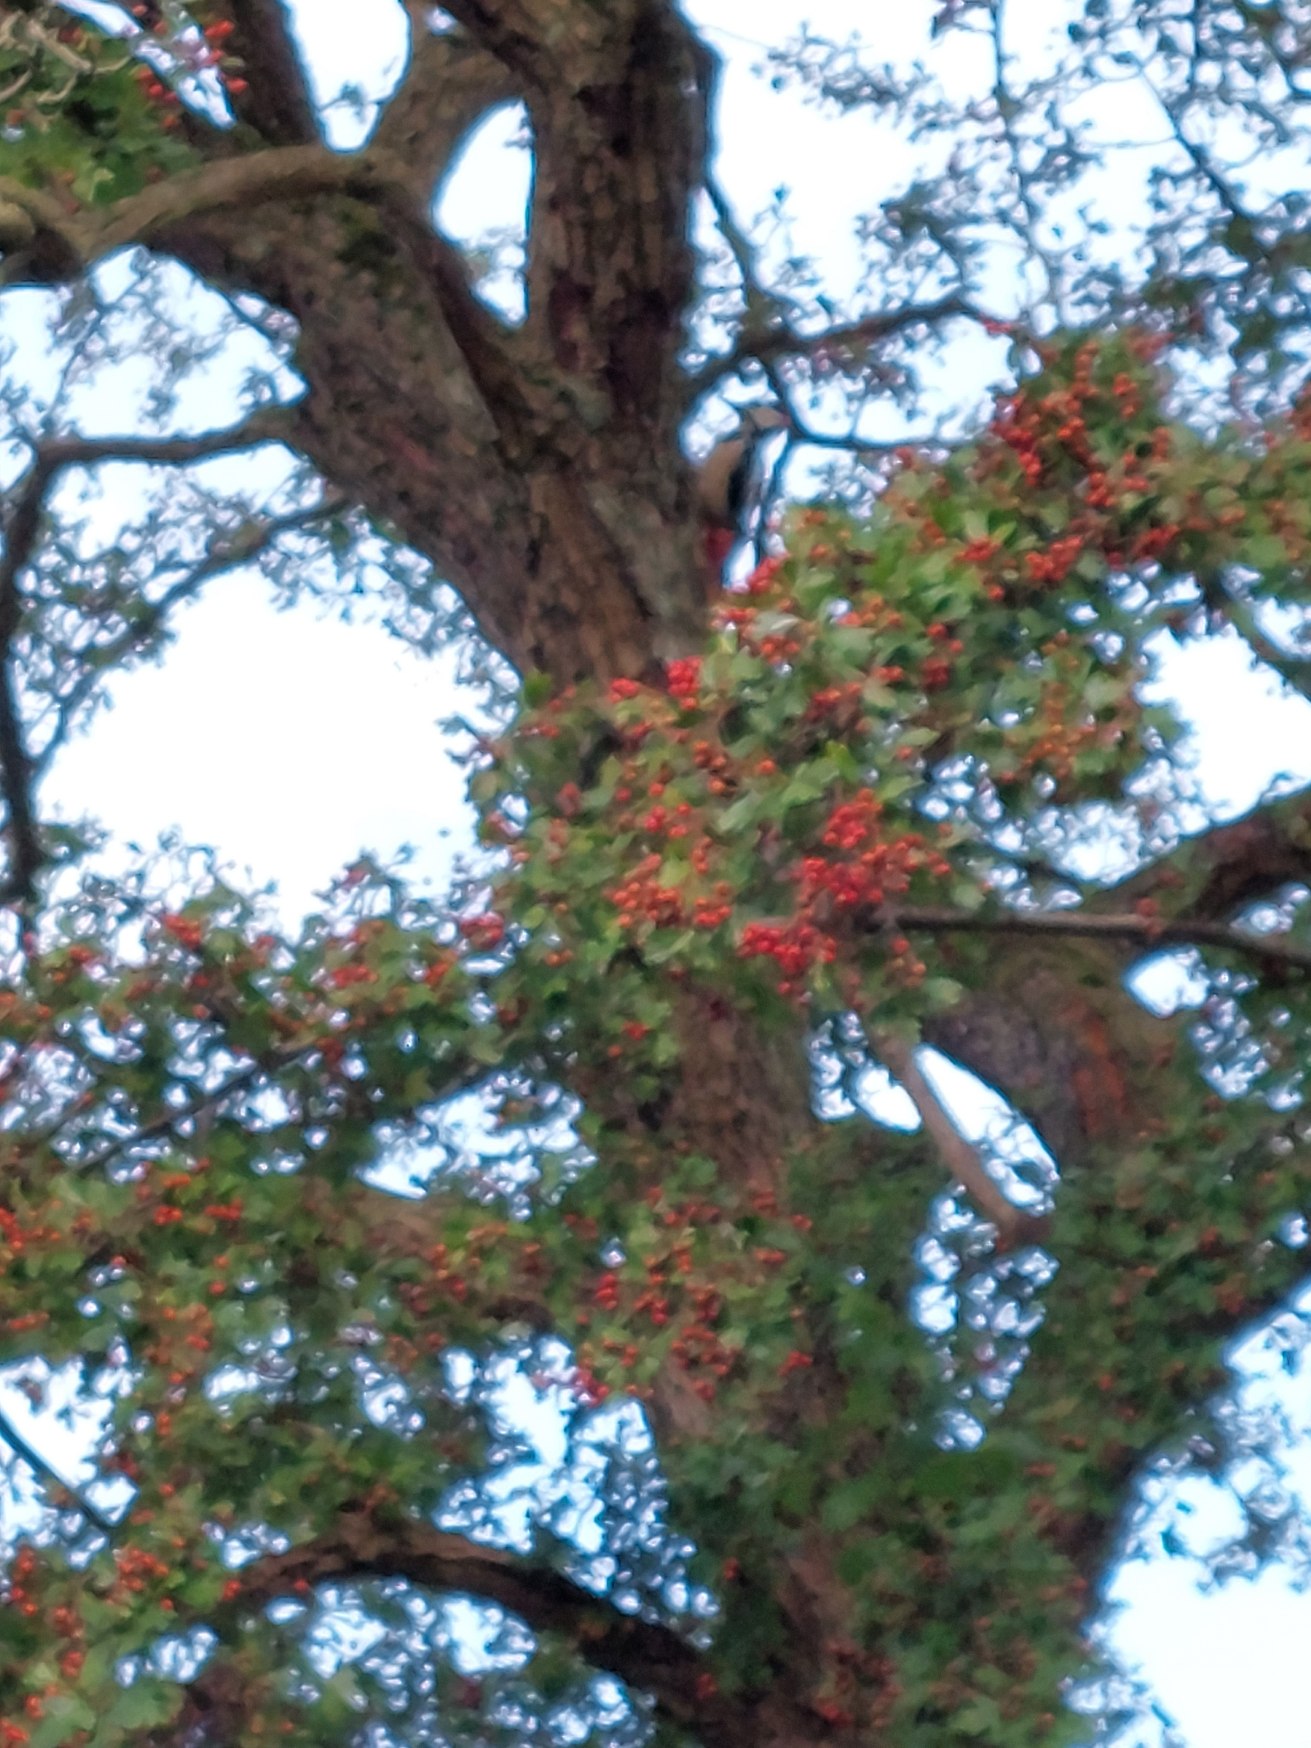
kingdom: Animalia
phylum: Chordata
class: Aves
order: Piciformes
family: Picidae
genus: Dendrocopos
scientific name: Dendrocopos major
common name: Stor flagspætte
